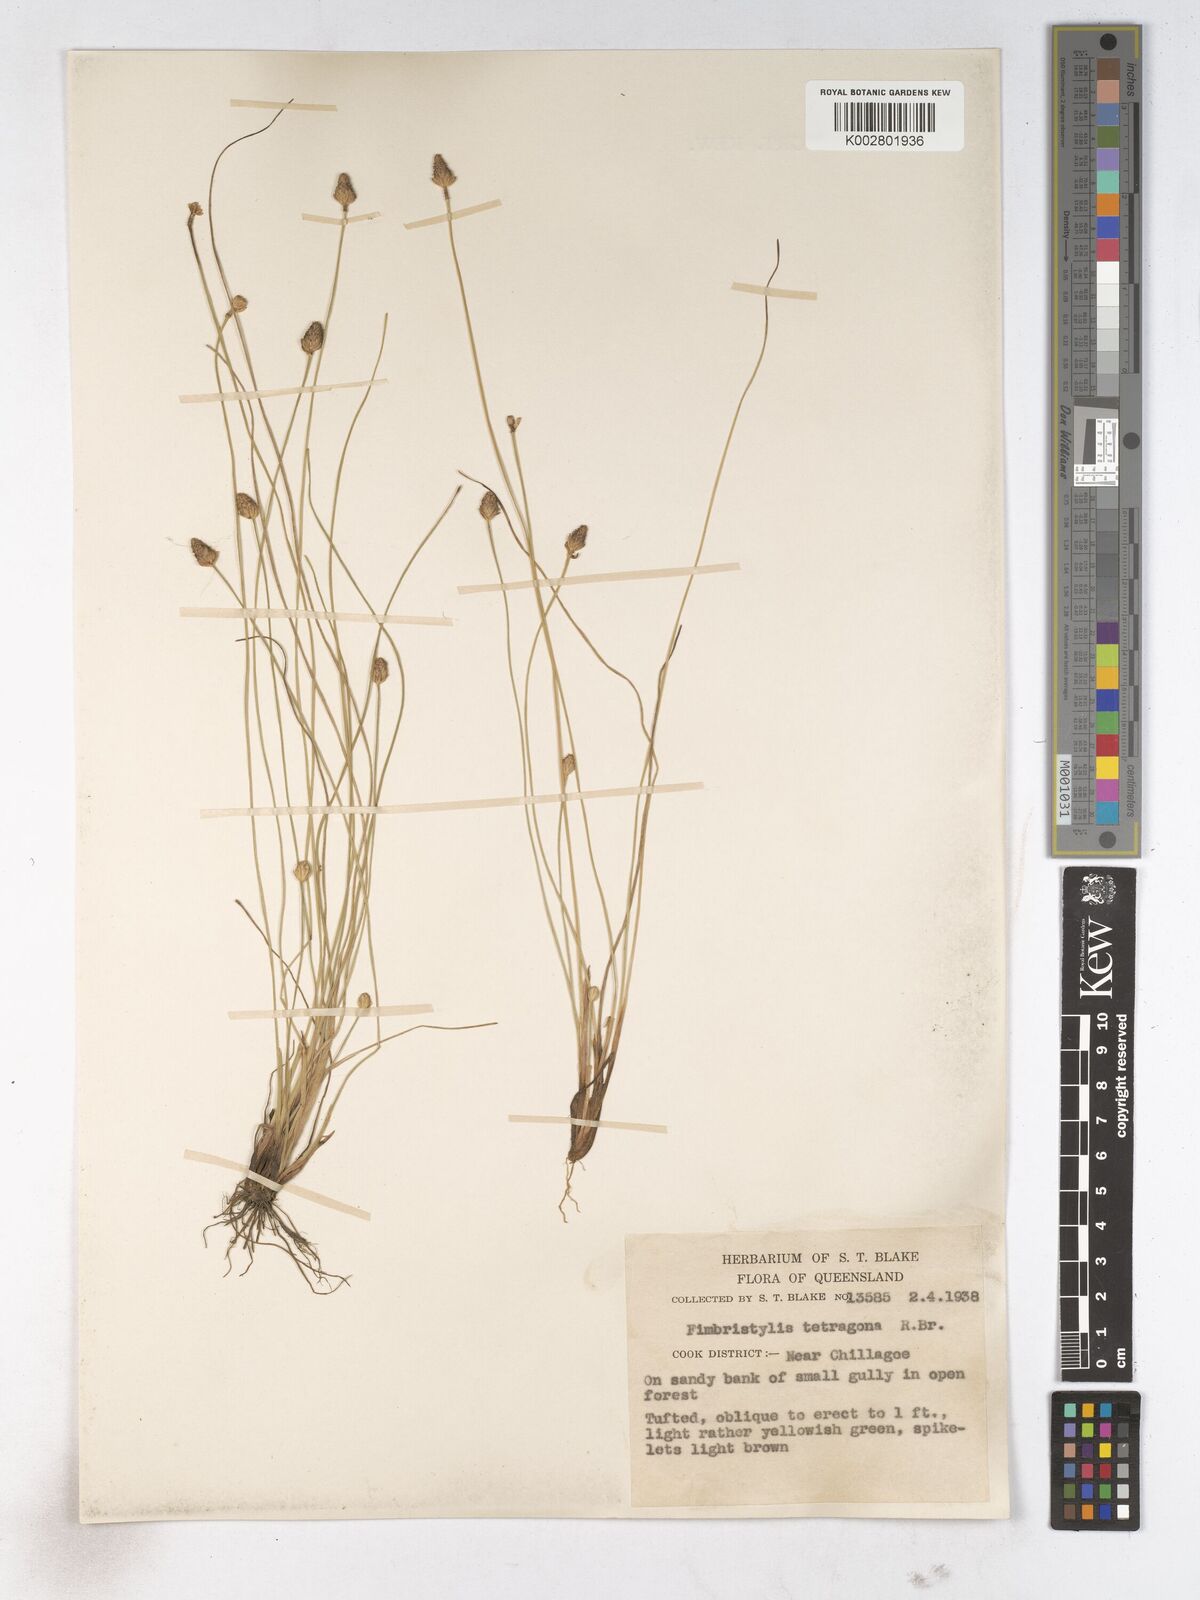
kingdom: Plantae
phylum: Tracheophyta
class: Liliopsida
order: Poales
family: Cyperaceae
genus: Fimbristylis
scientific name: Fimbristylis tetragona
